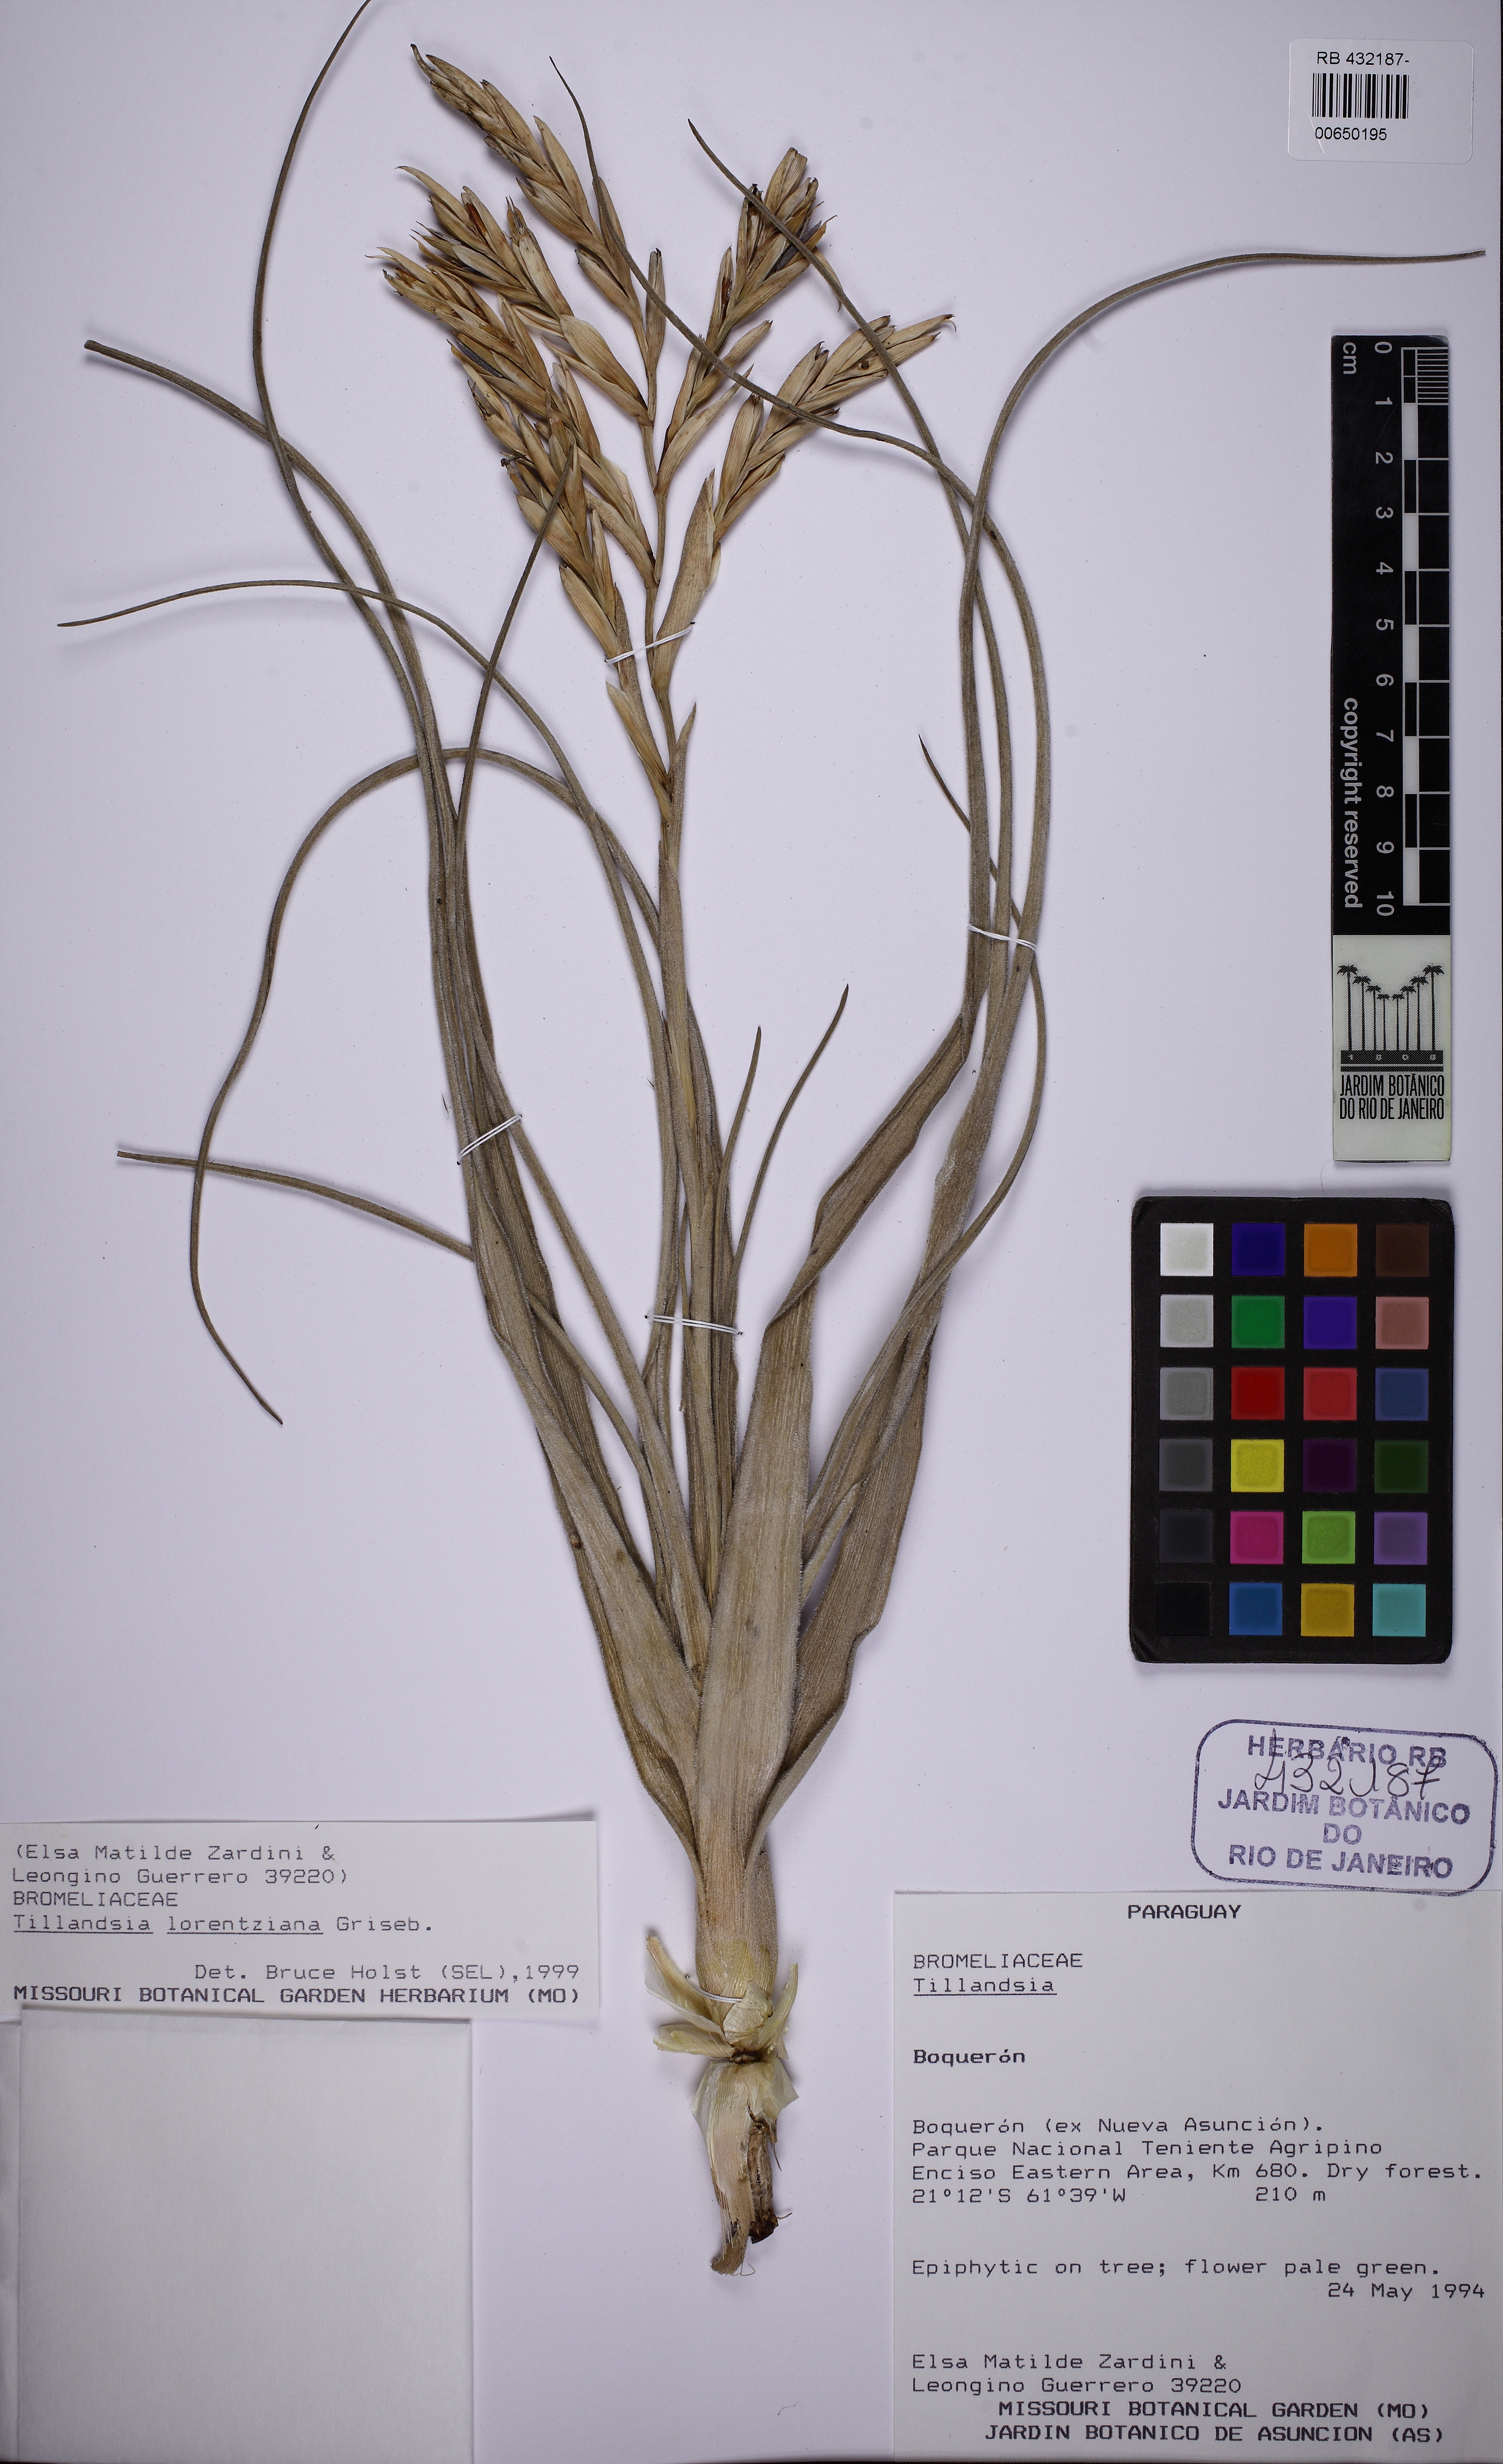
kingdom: Plantae
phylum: Tracheophyta
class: Liliopsida
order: Poales
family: Bromeliaceae
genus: Tillandsia
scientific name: Tillandsia lorentziana
